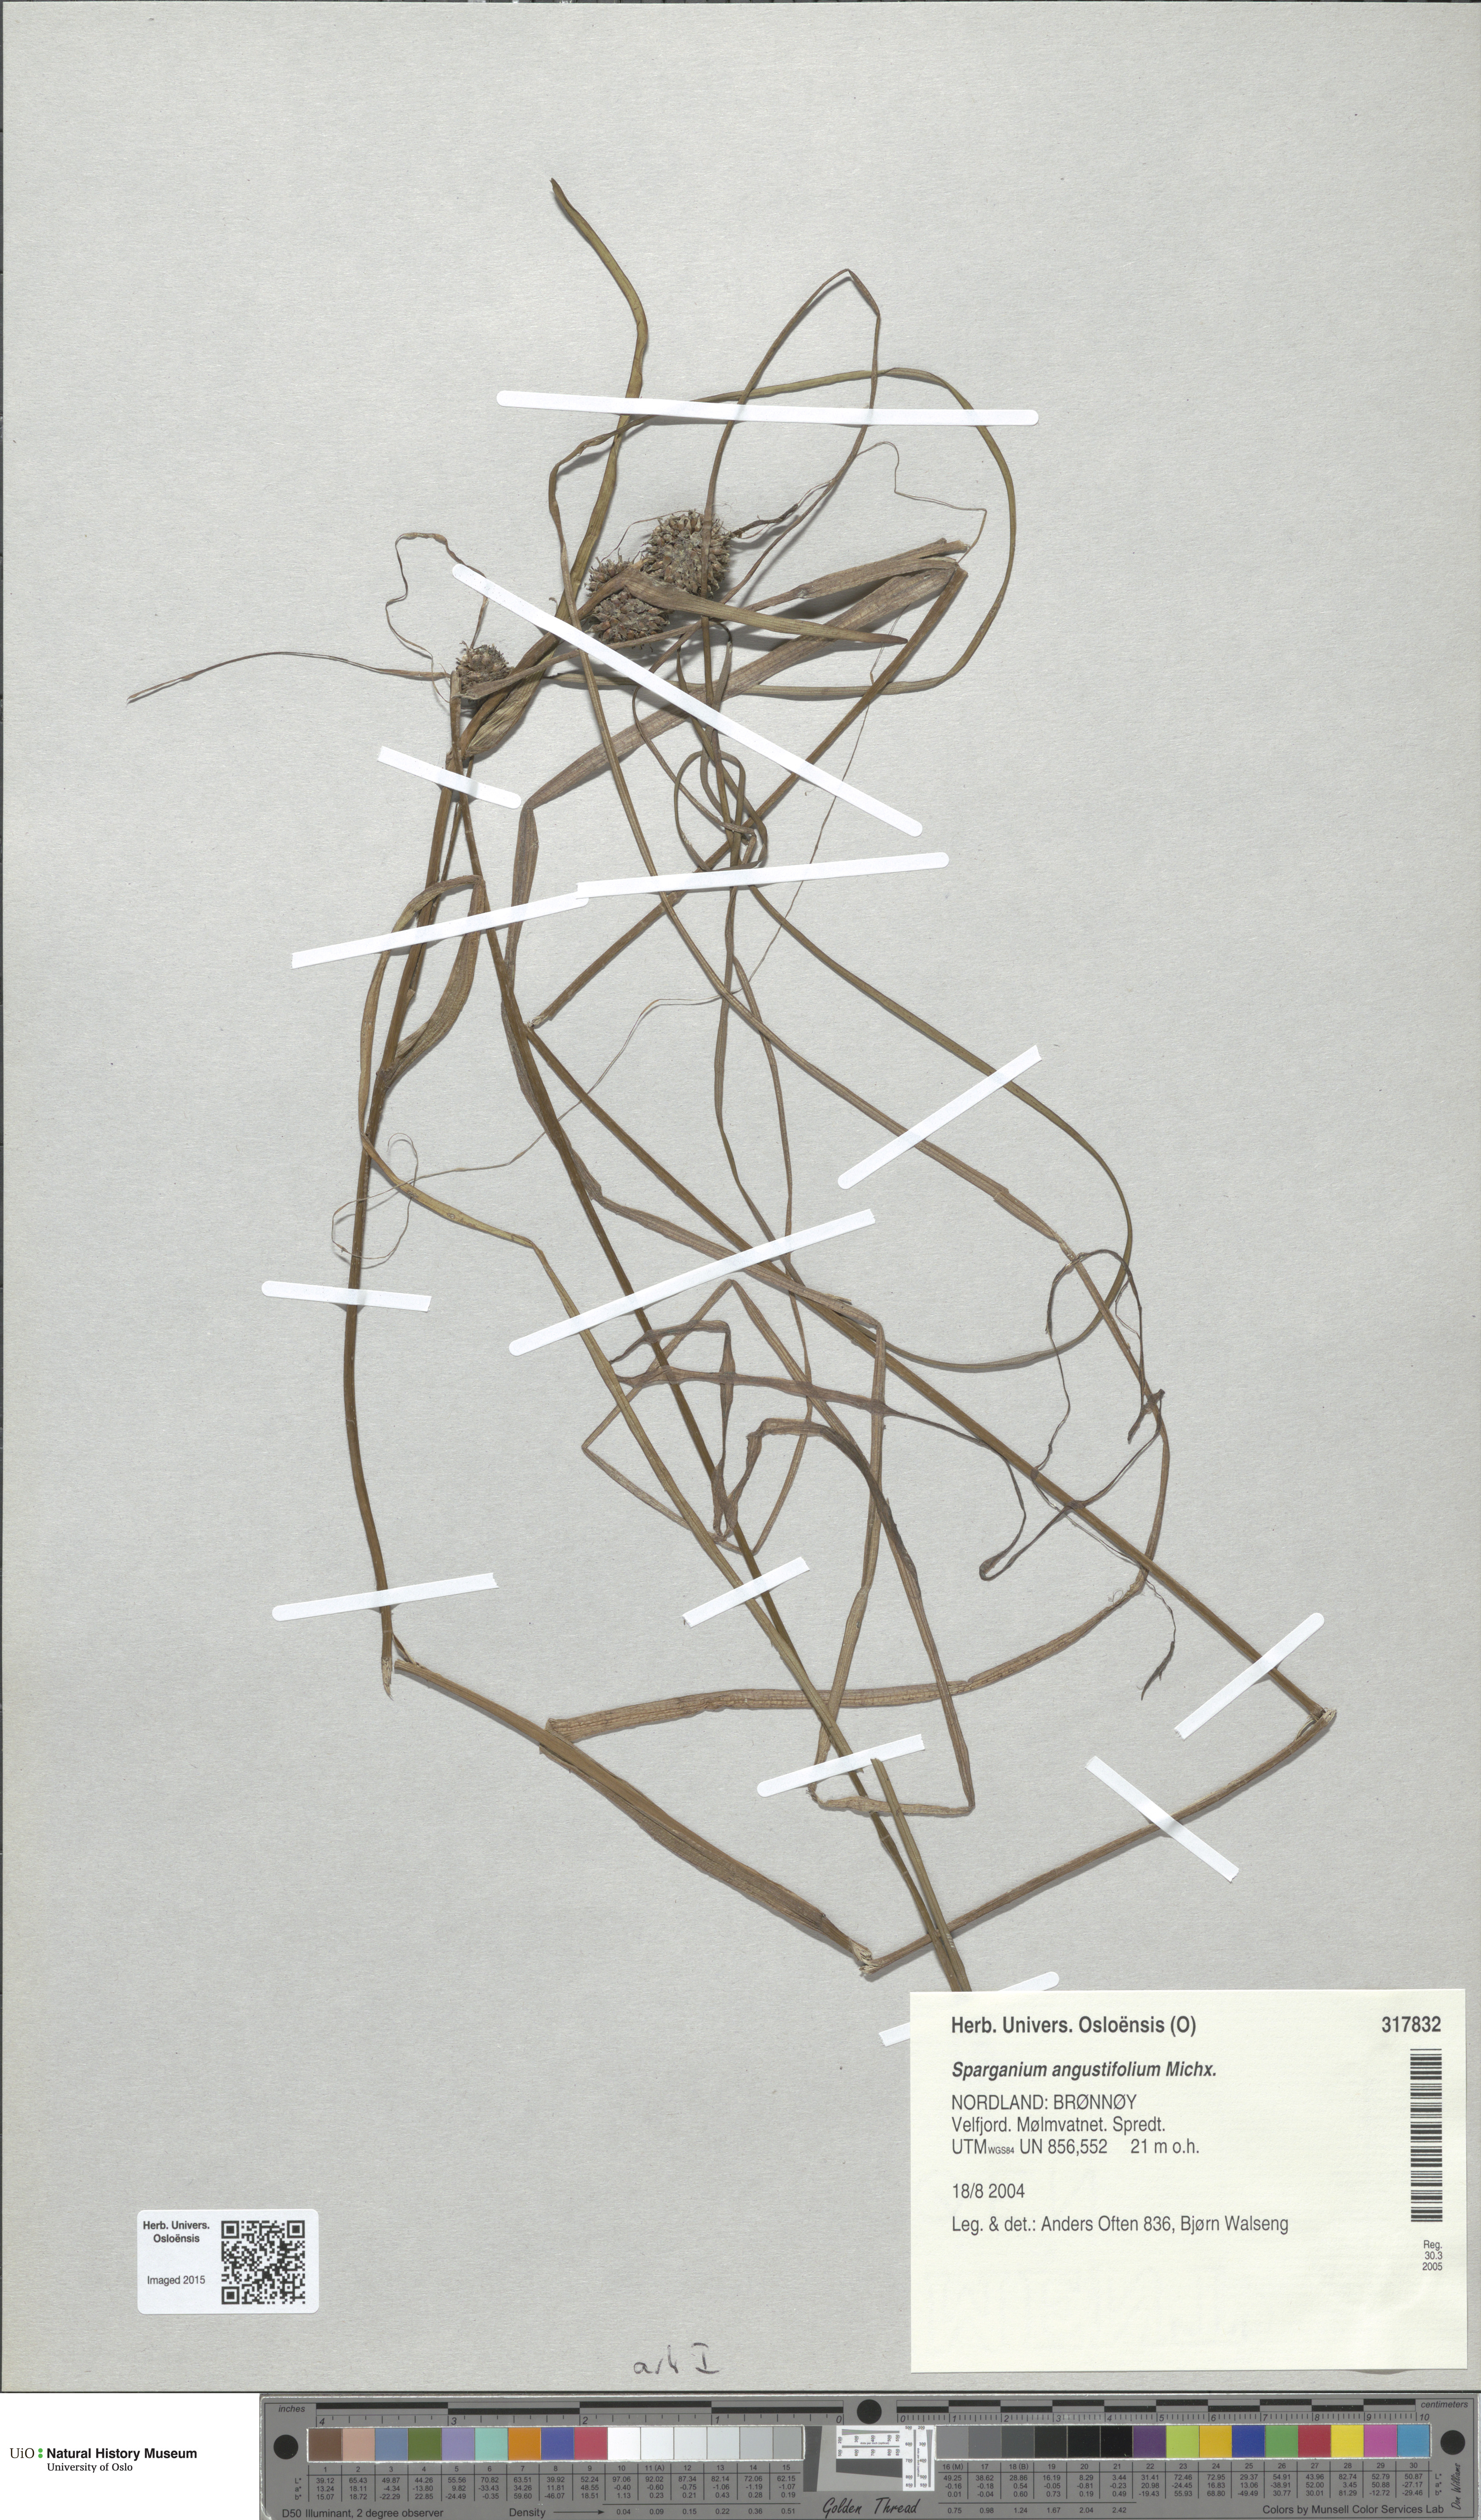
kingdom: Plantae
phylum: Tracheophyta
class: Liliopsida
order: Poales
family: Typhaceae
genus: Sparganium
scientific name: Sparganium angustifolium
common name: Floating bur-reed
